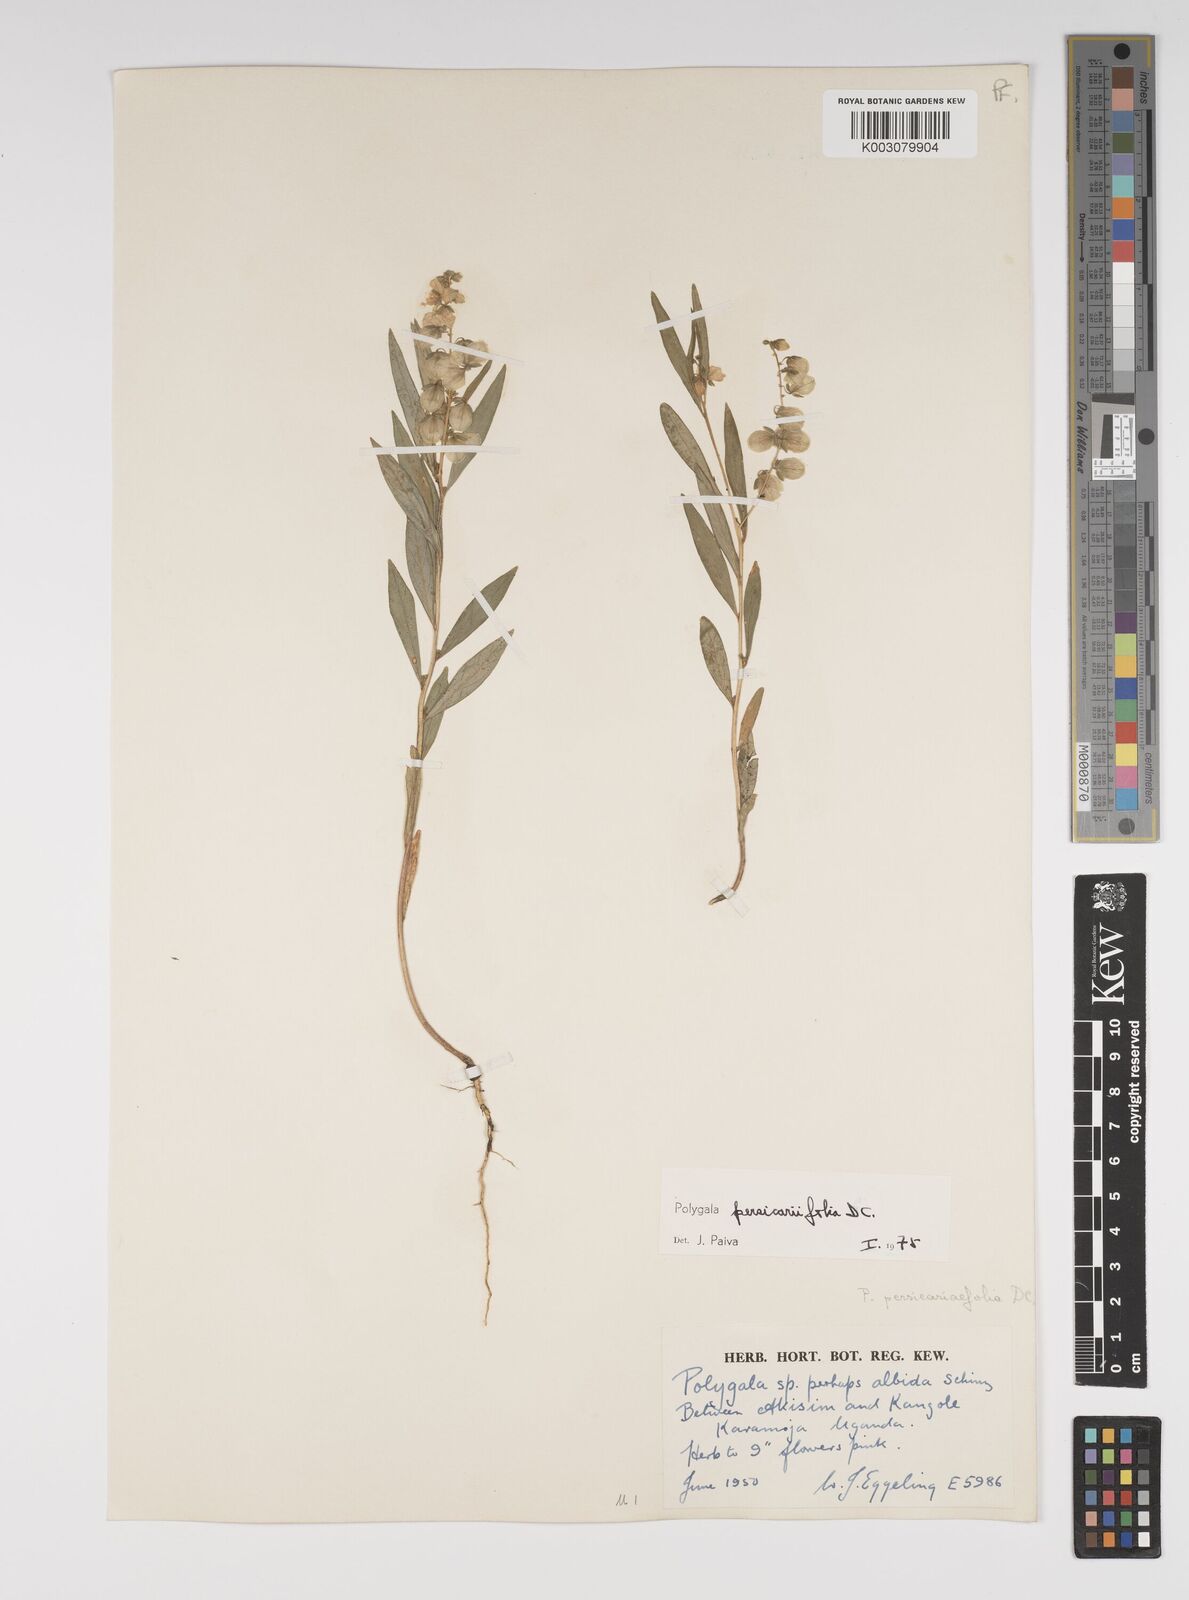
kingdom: Plantae
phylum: Tracheophyta
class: Magnoliopsida
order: Fabales
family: Polygalaceae
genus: Polygala
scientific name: Polygala persicariifolia
